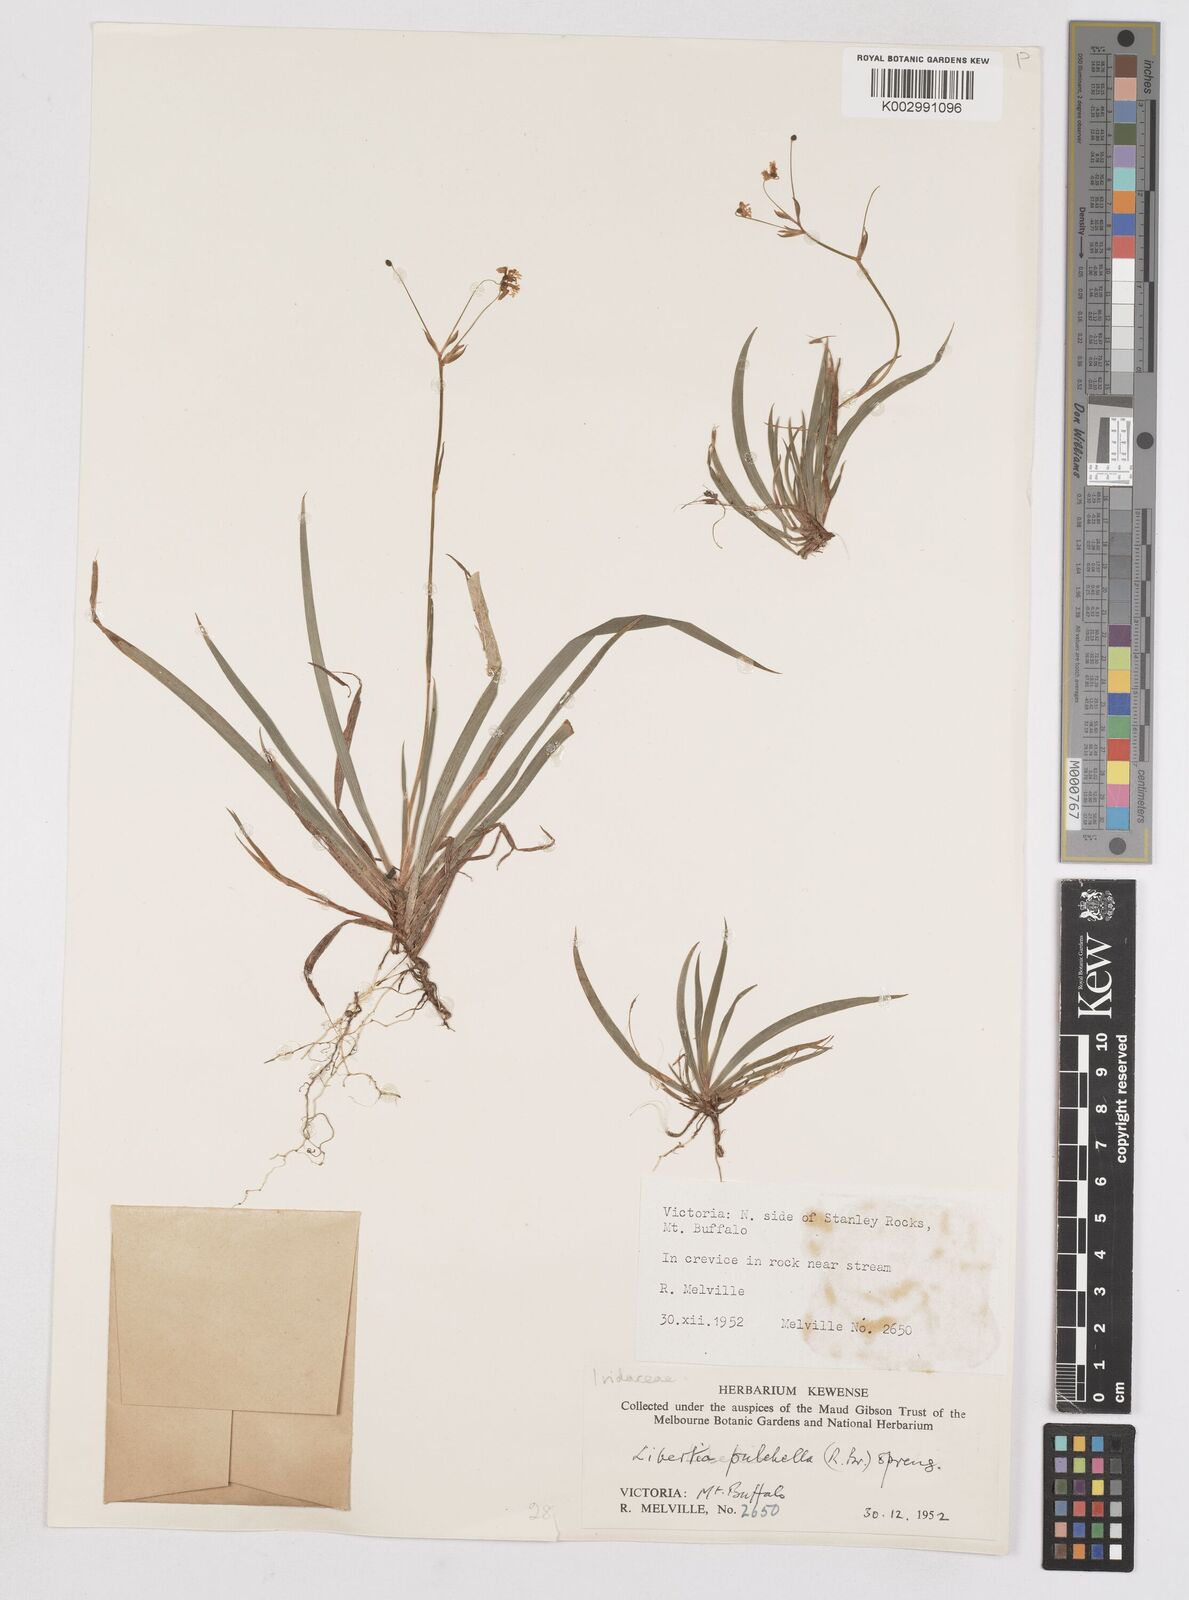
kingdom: Plantae
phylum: Tracheophyta
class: Liliopsida
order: Asparagales
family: Iridaceae
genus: Libertia
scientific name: Libertia pulchella
